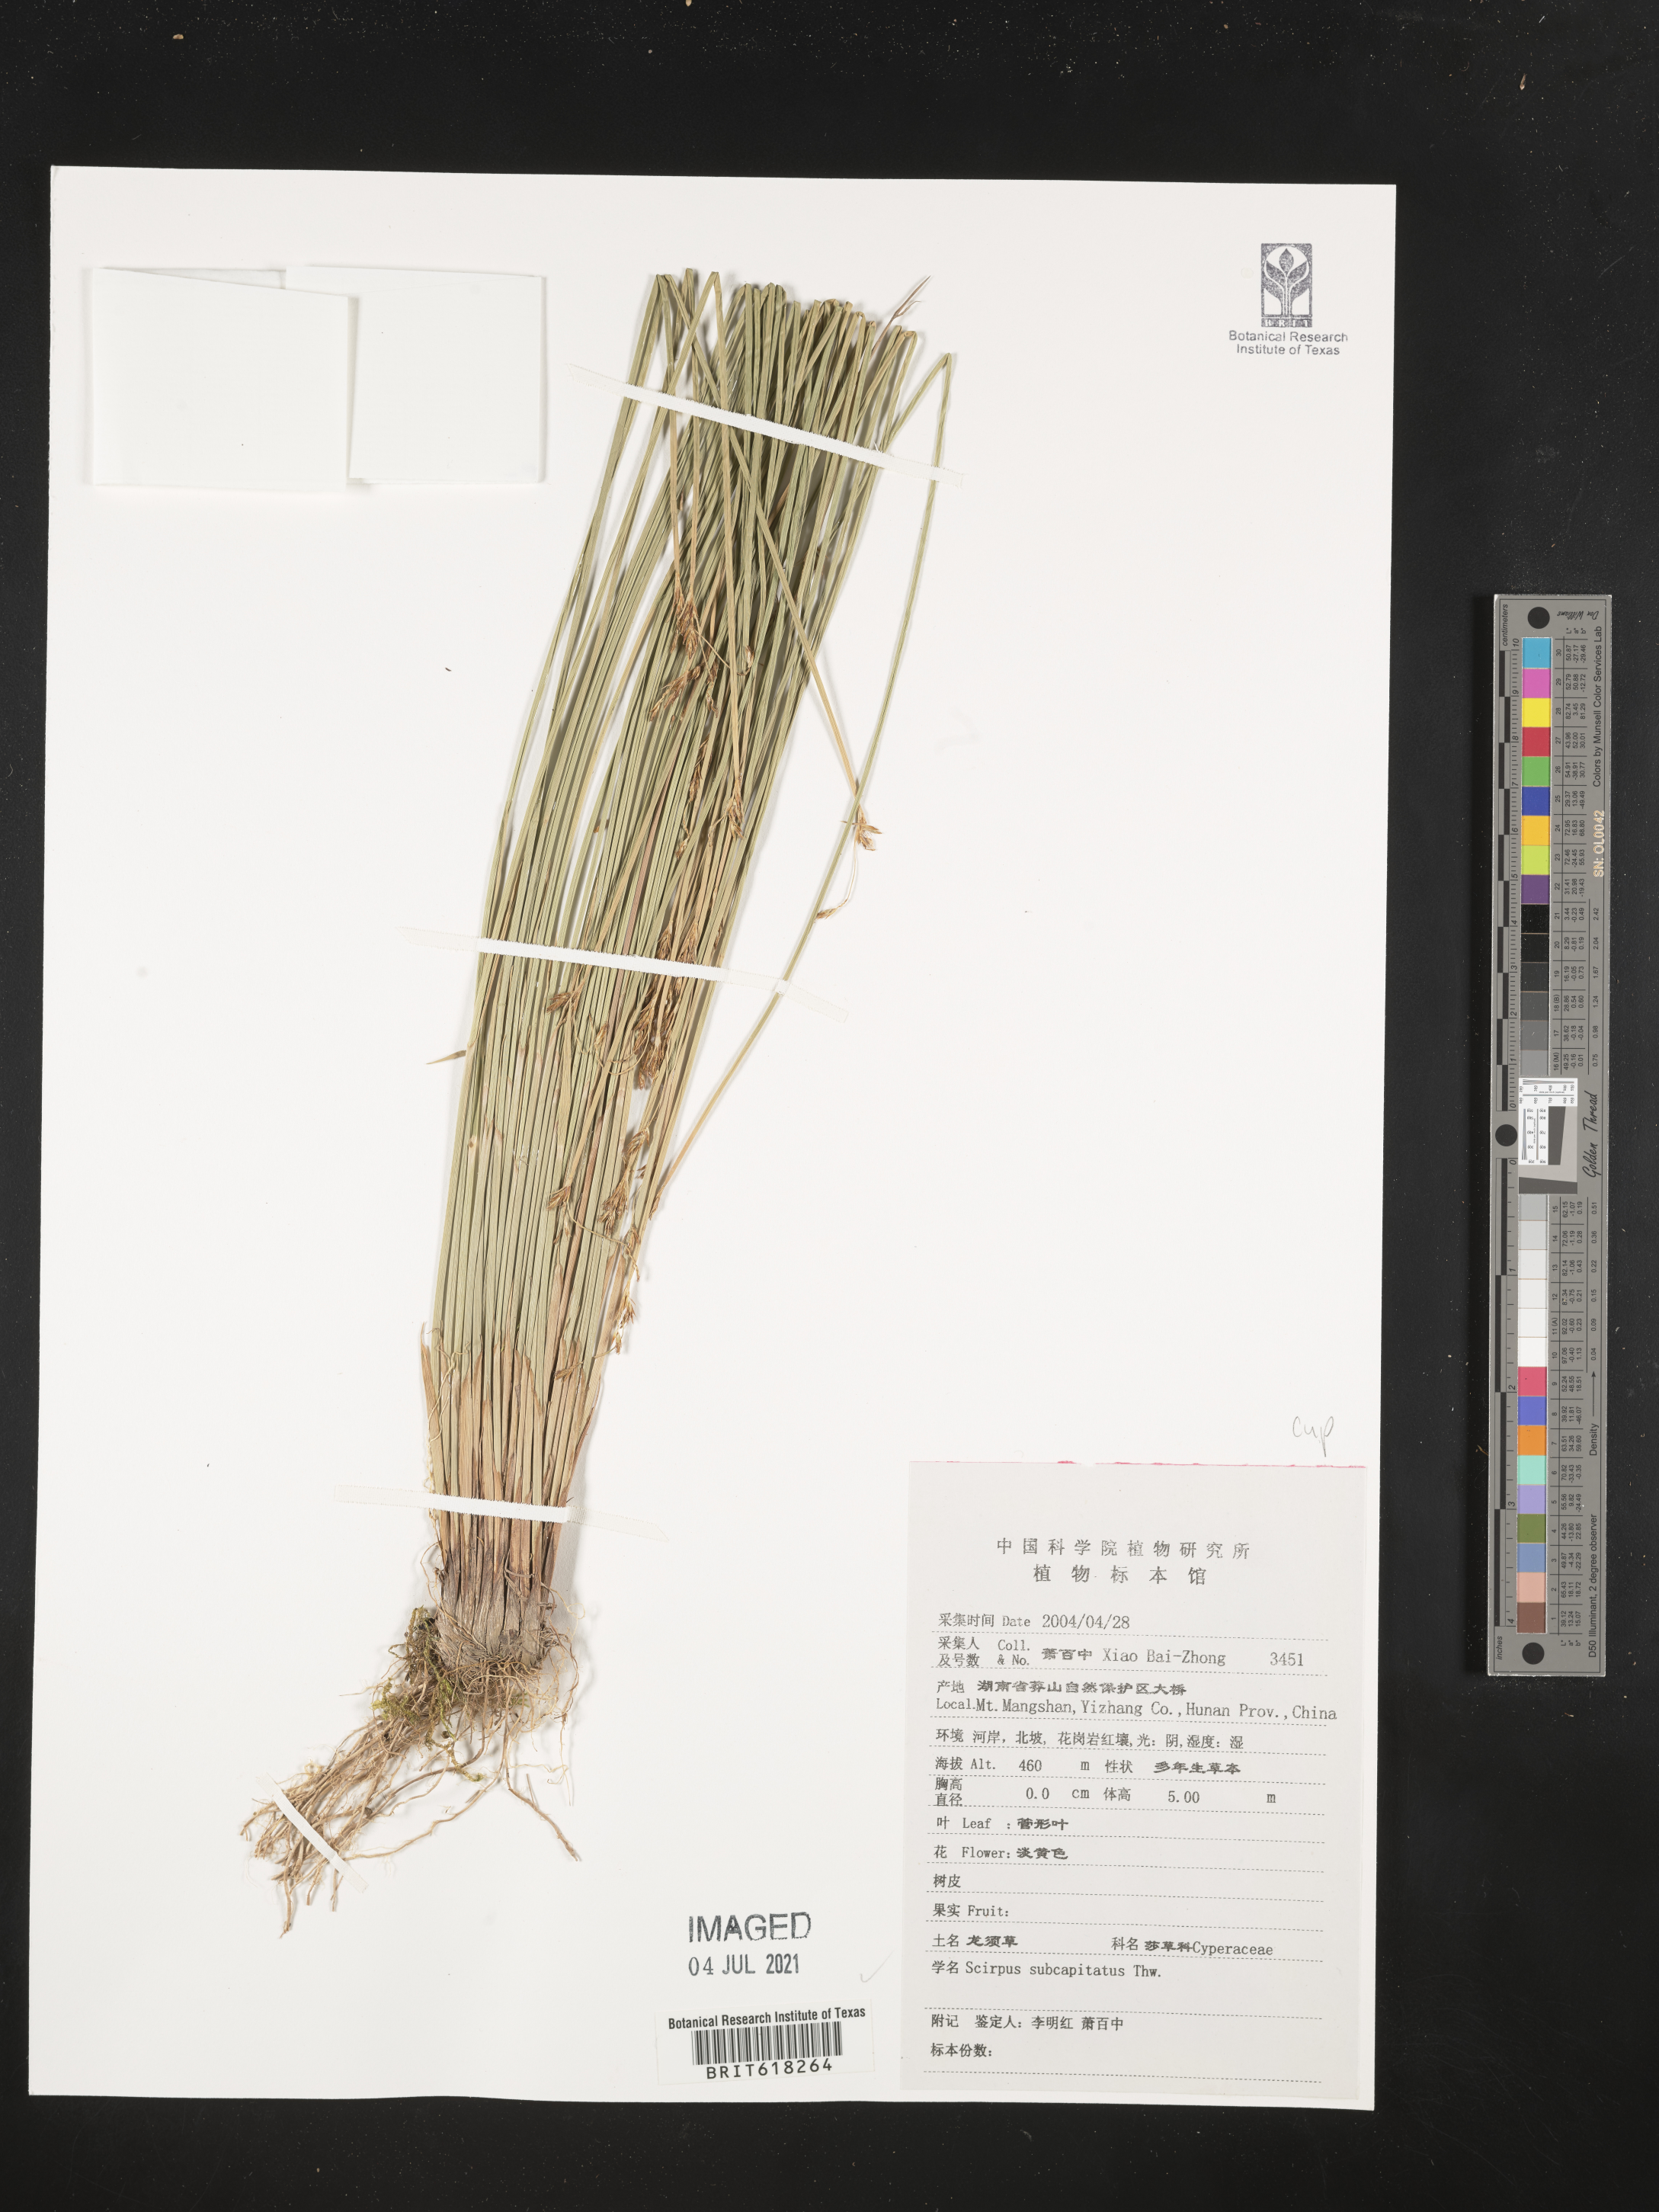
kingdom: Plantae
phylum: Tracheophyta
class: Liliopsida
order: Poales
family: Cyperaceae
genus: Trichophorum
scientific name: Trichophorum subcapitatum
